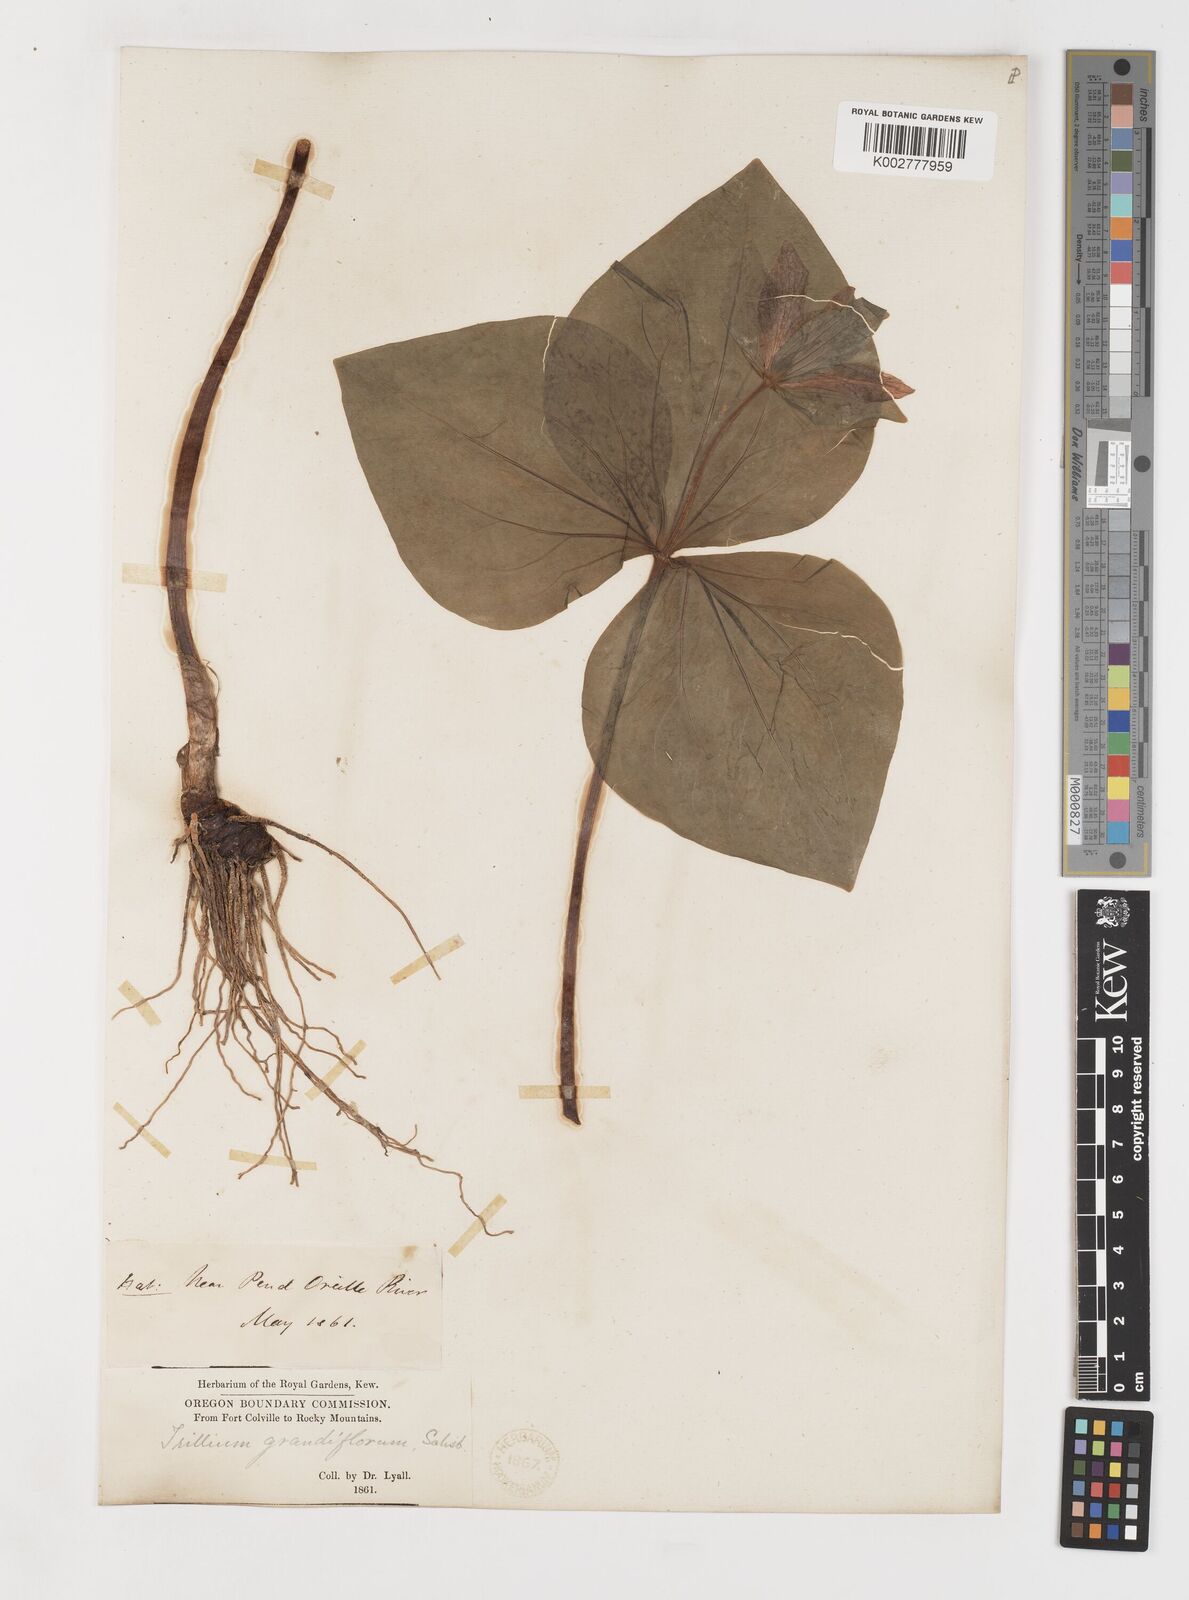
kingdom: Plantae
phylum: Tracheophyta
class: Liliopsida
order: Liliales
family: Melanthiaceae
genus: Trillium
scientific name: Trillium ovatum
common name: Pacific trillium
